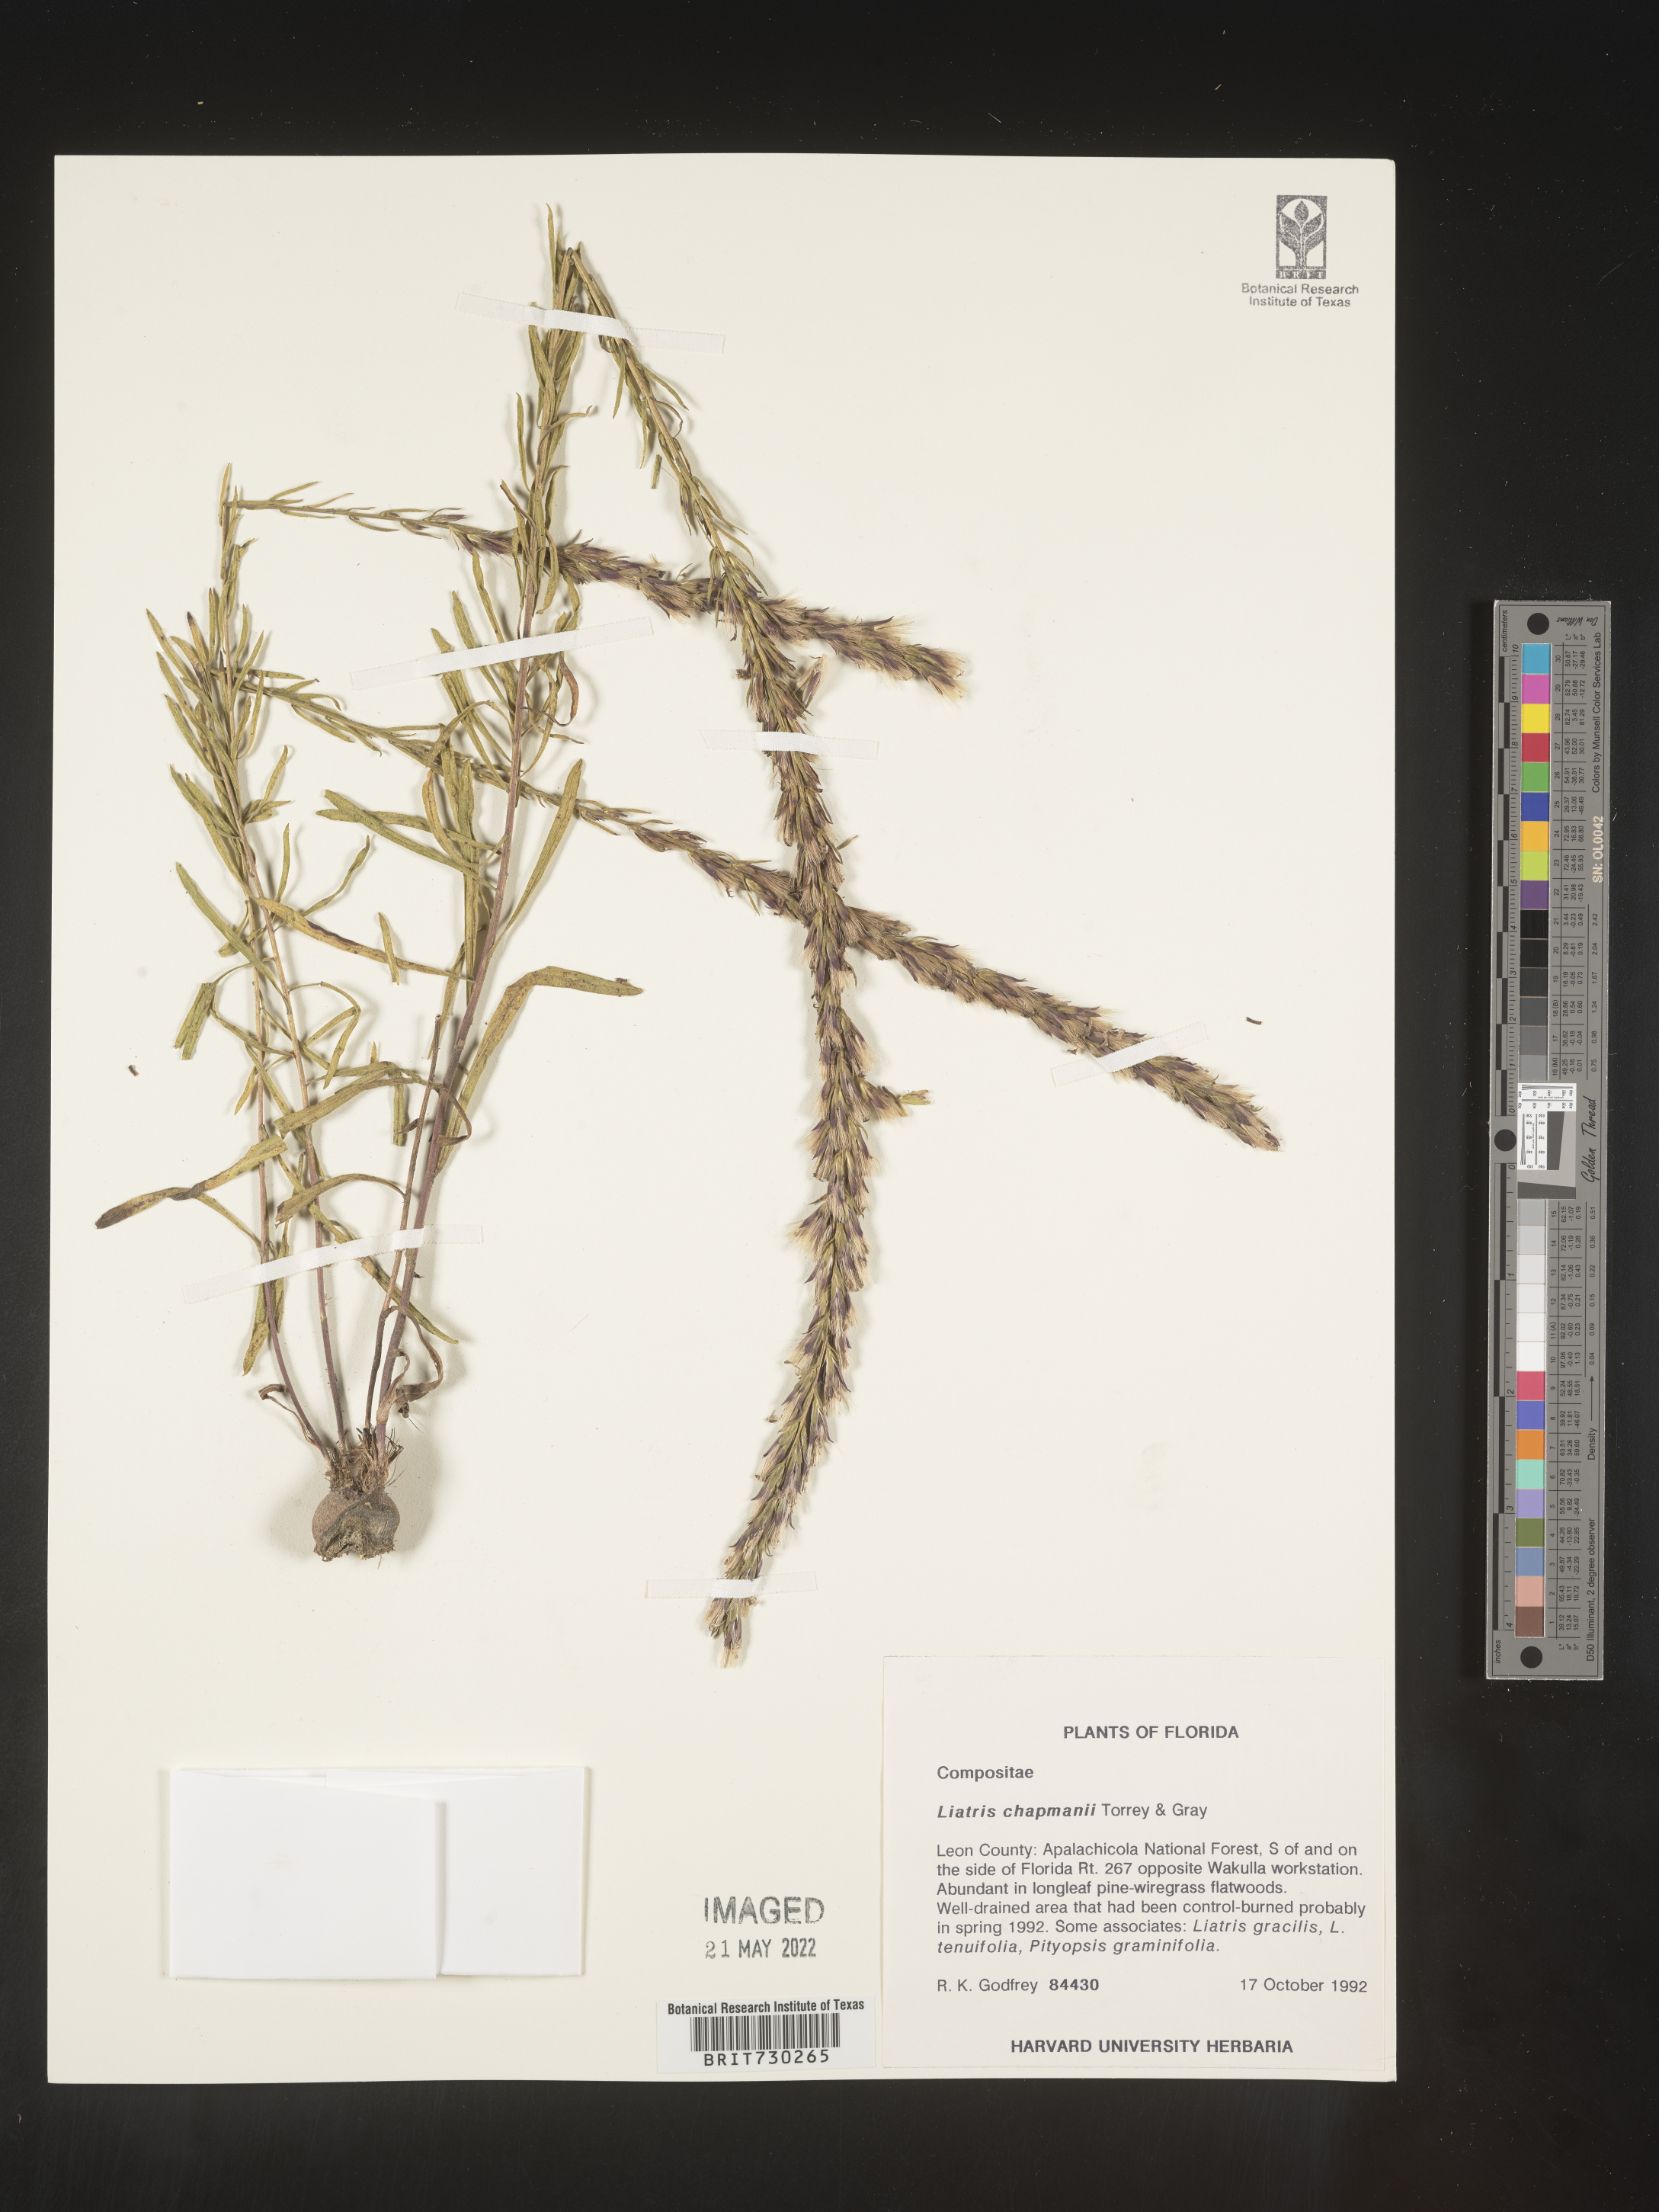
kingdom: Plantae
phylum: Tracheophyta
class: Magnoliopsida
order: Asterales
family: Asteraceae
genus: Liatris
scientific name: Liatris chapmanii
